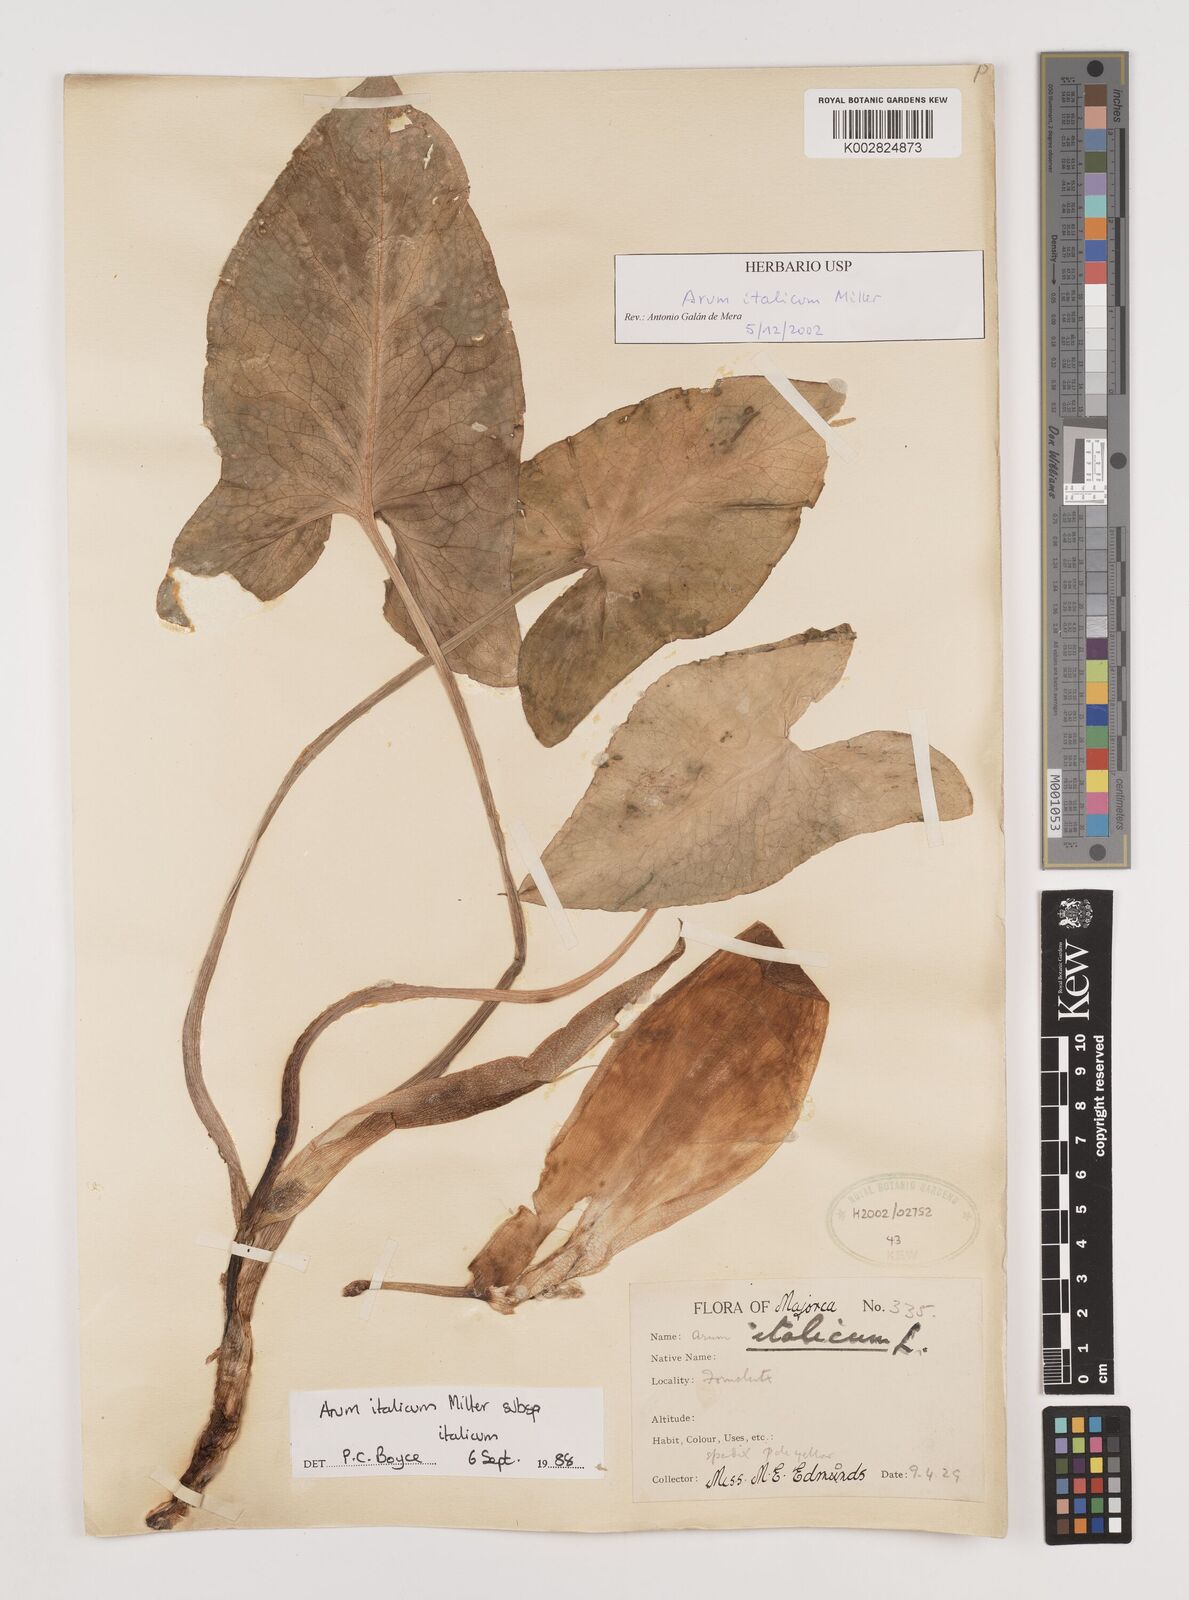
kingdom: Plantae
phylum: Tracheophyta
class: Liliopsida
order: Alismatales
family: Araceae
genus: Arum
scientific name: Arum italicum
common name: Italian lords-and-ladies
